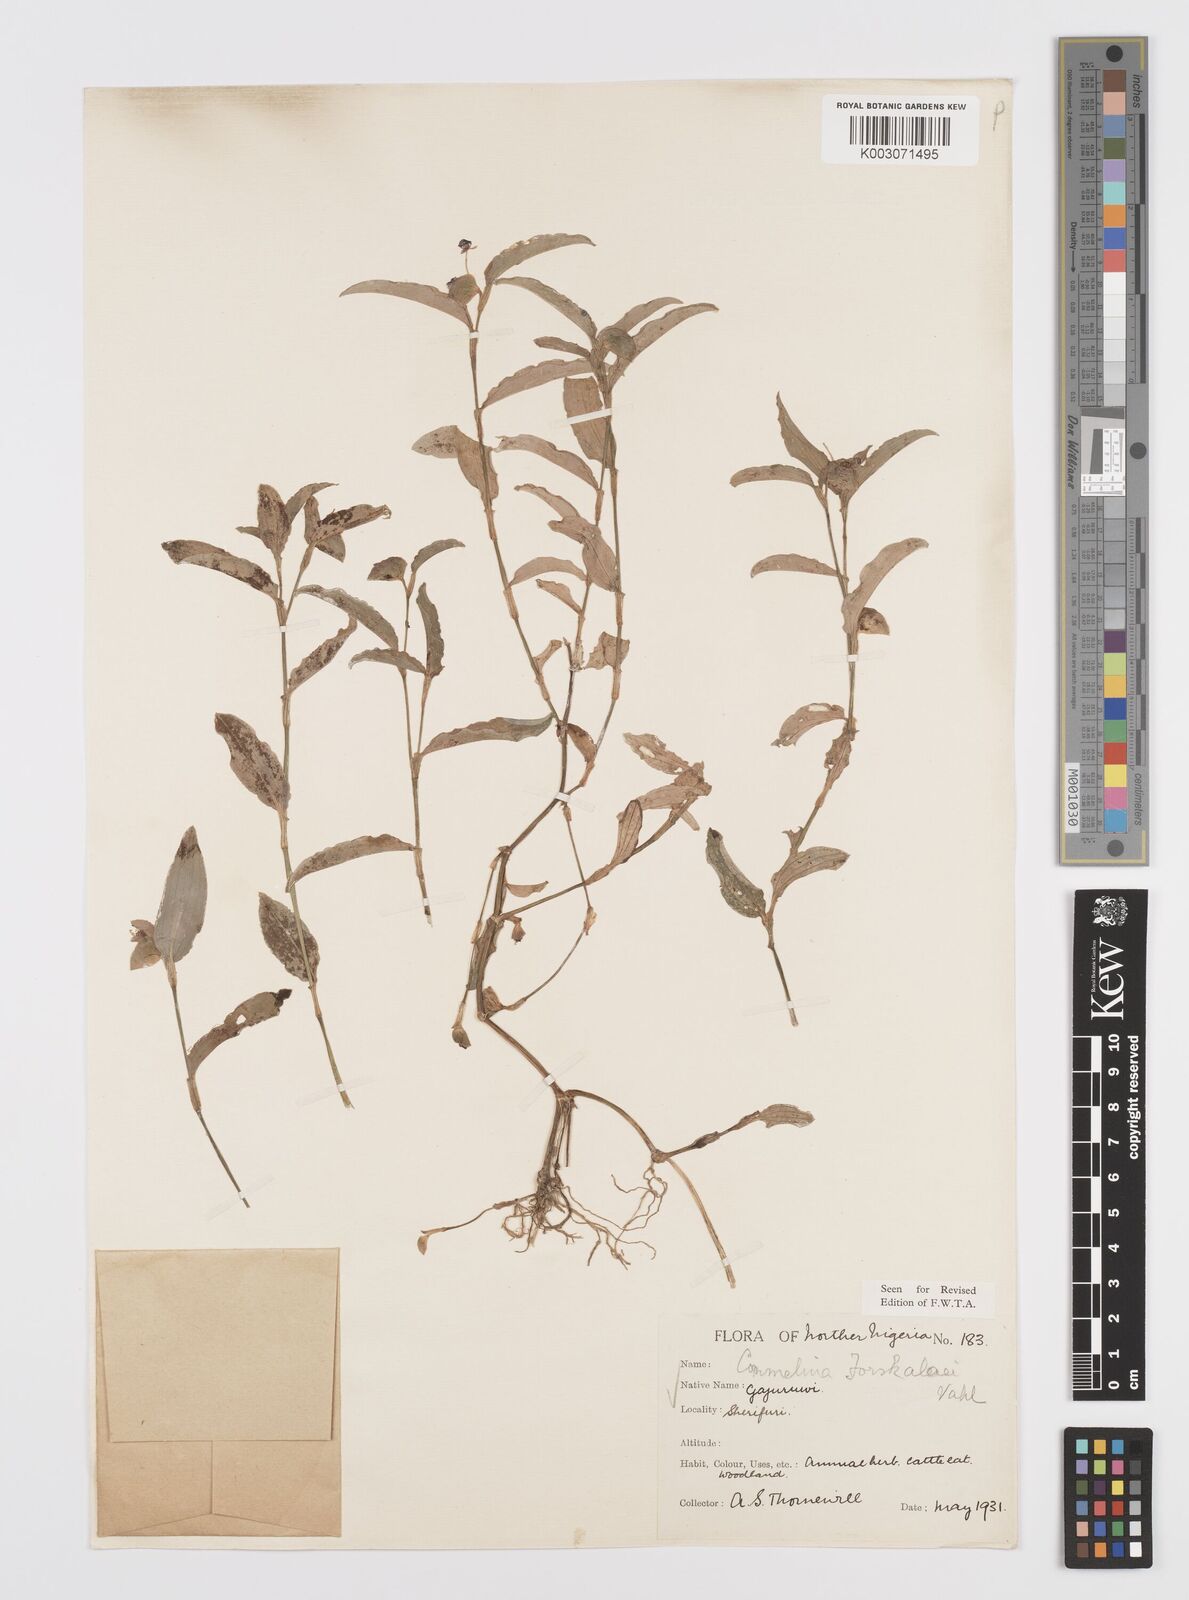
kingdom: Plantae
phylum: Tracheophyta
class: Liliopsida
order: Commelinales
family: Commelinaceae
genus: Commelina
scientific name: Commelina forskaolii
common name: Rat's ear
